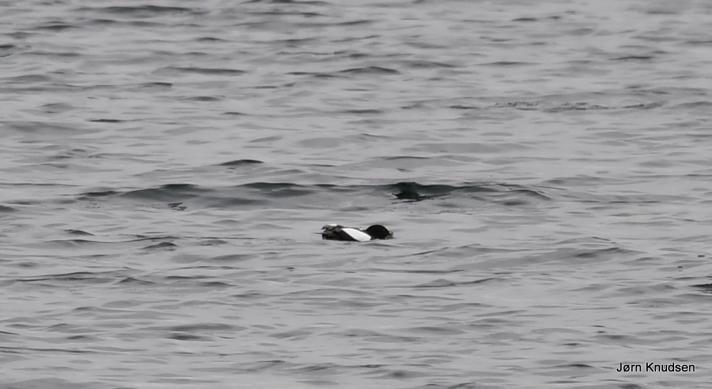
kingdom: Animalia
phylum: Chordata
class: Aves
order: Charadriiformes
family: Alcidae
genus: Cepphus
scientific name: Cepphus grylle
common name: Tejst
